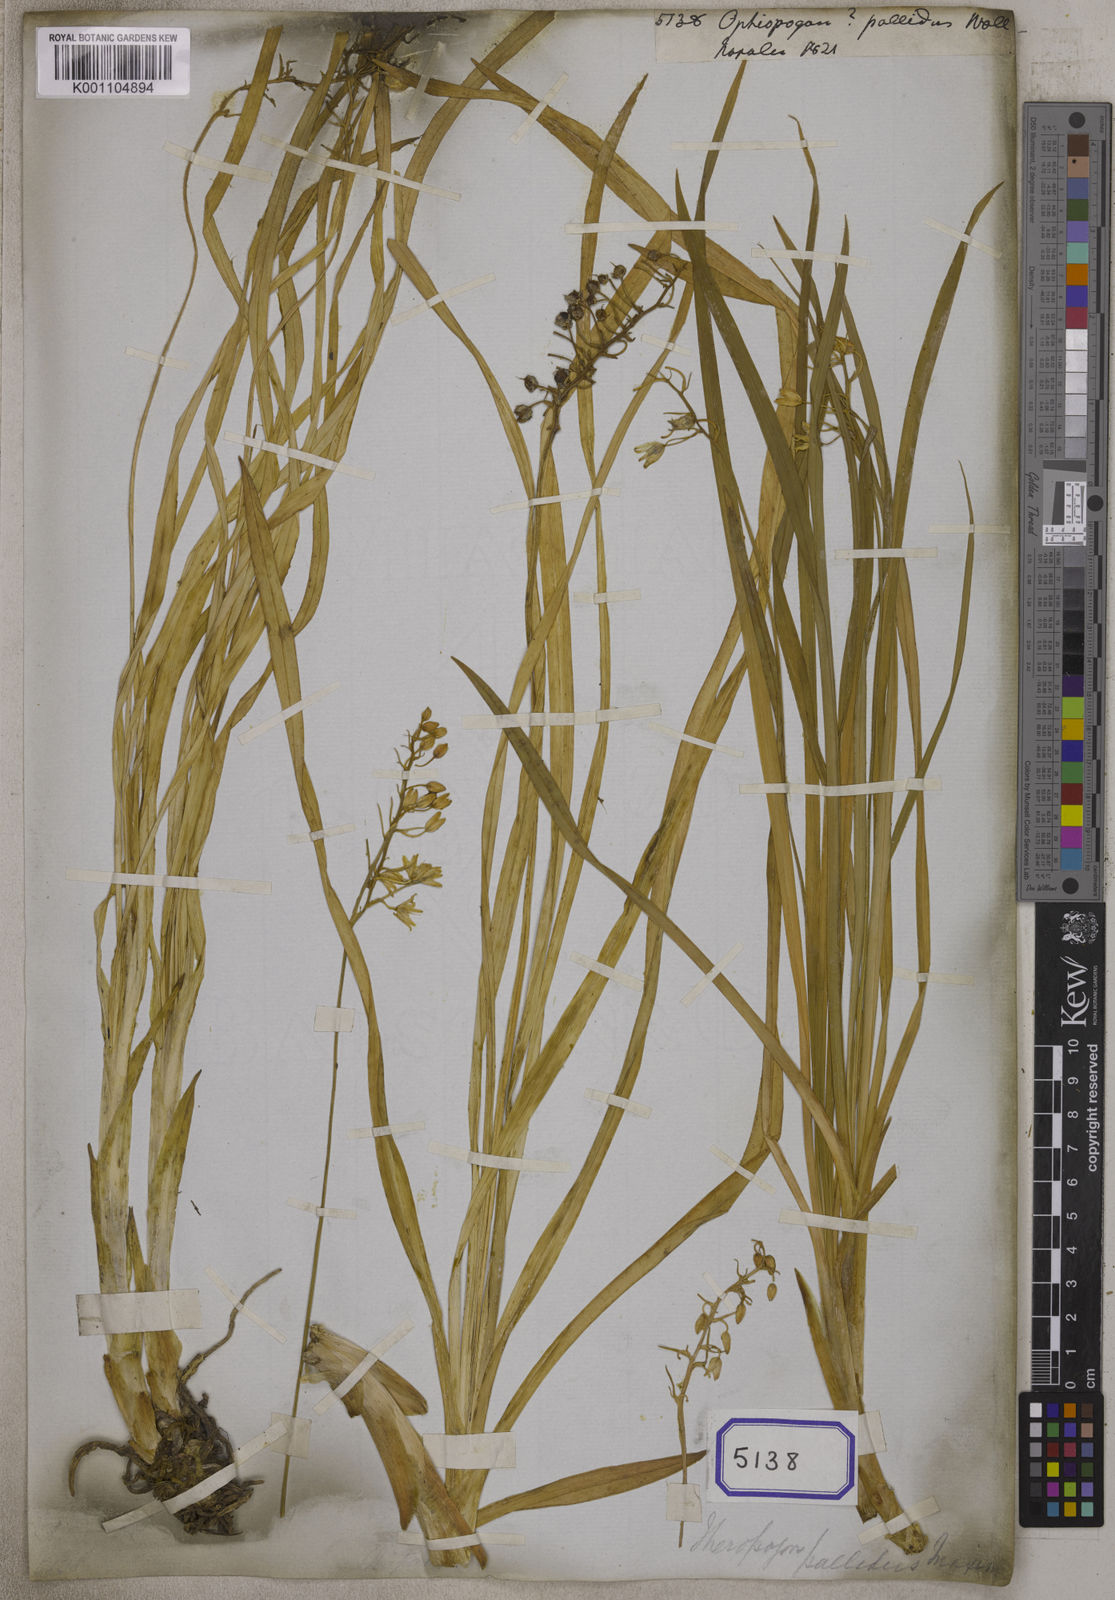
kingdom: Plantae
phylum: Tracheophyta
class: Liliopsida
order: Asparagales
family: Asparagaceae
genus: Ophiopogon
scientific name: Ophiopogon
